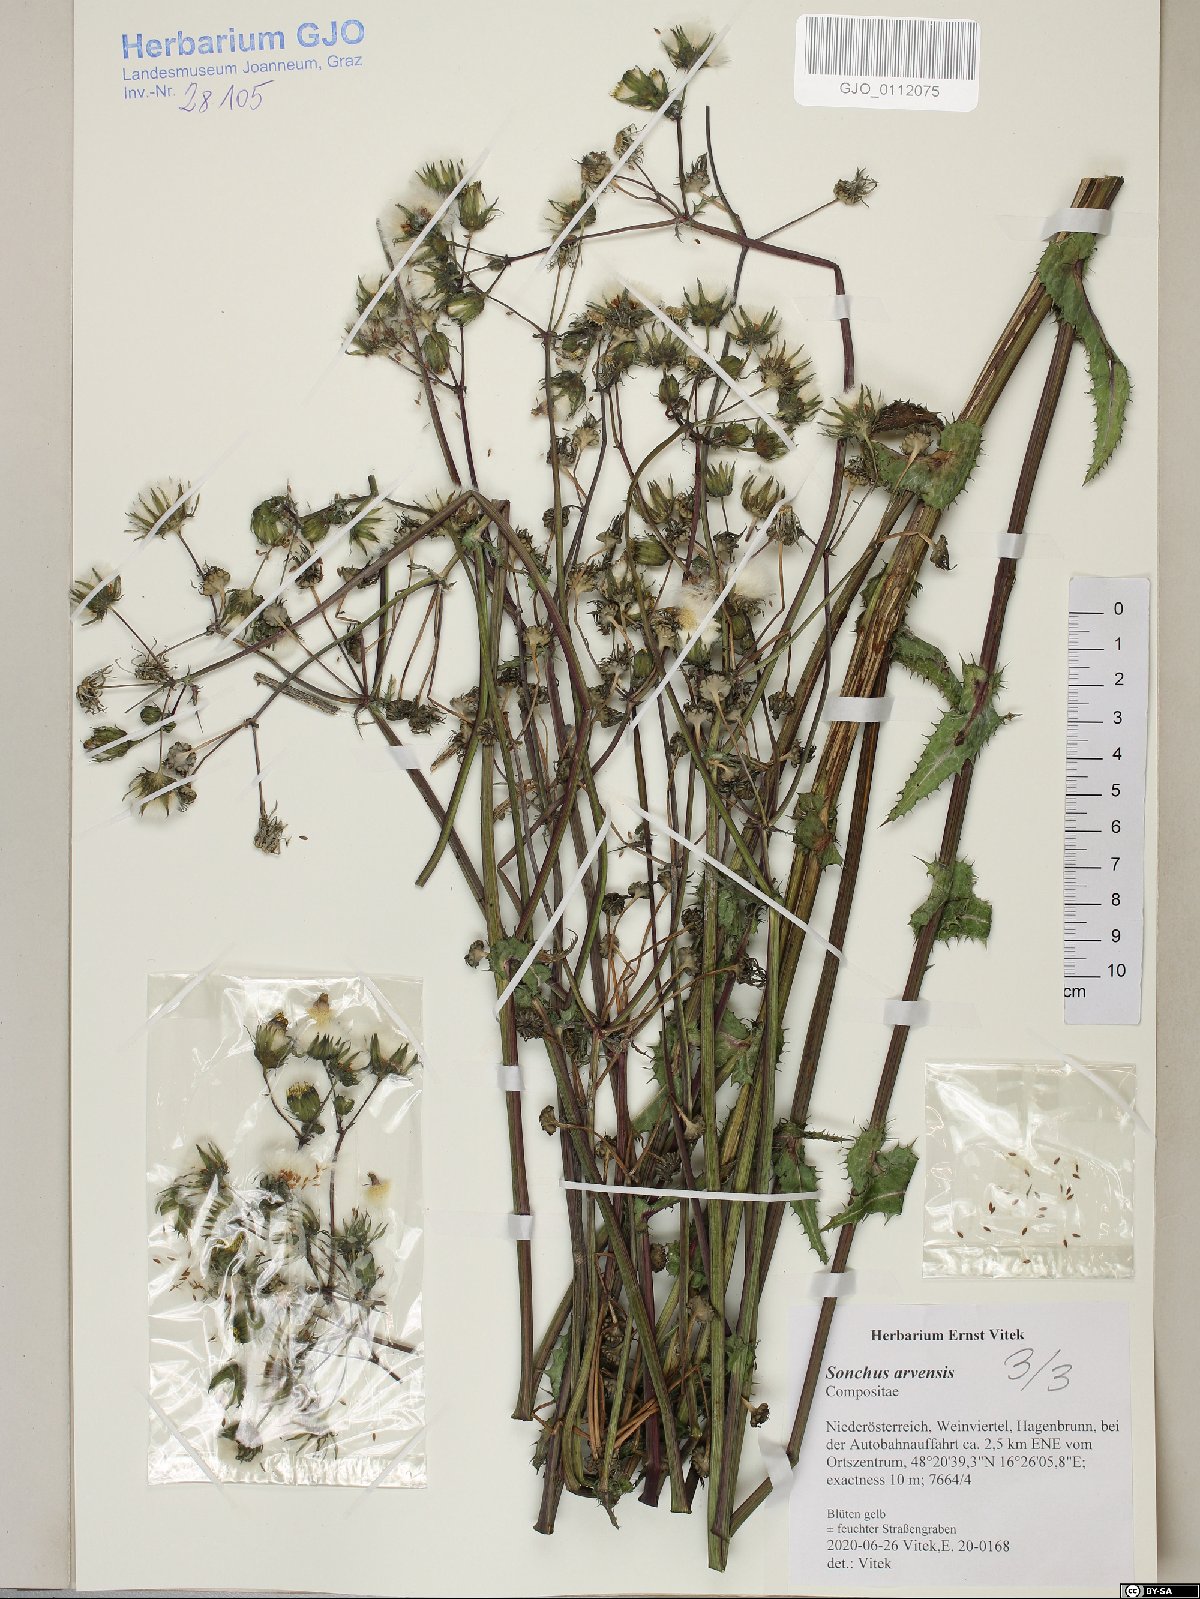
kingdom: Plantae
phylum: Tracheophyta
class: Magnoliopsida
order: Asterales
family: Asteraceae
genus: Sonchus
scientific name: Sonchus arvensis
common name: Perennial sow-thistle
